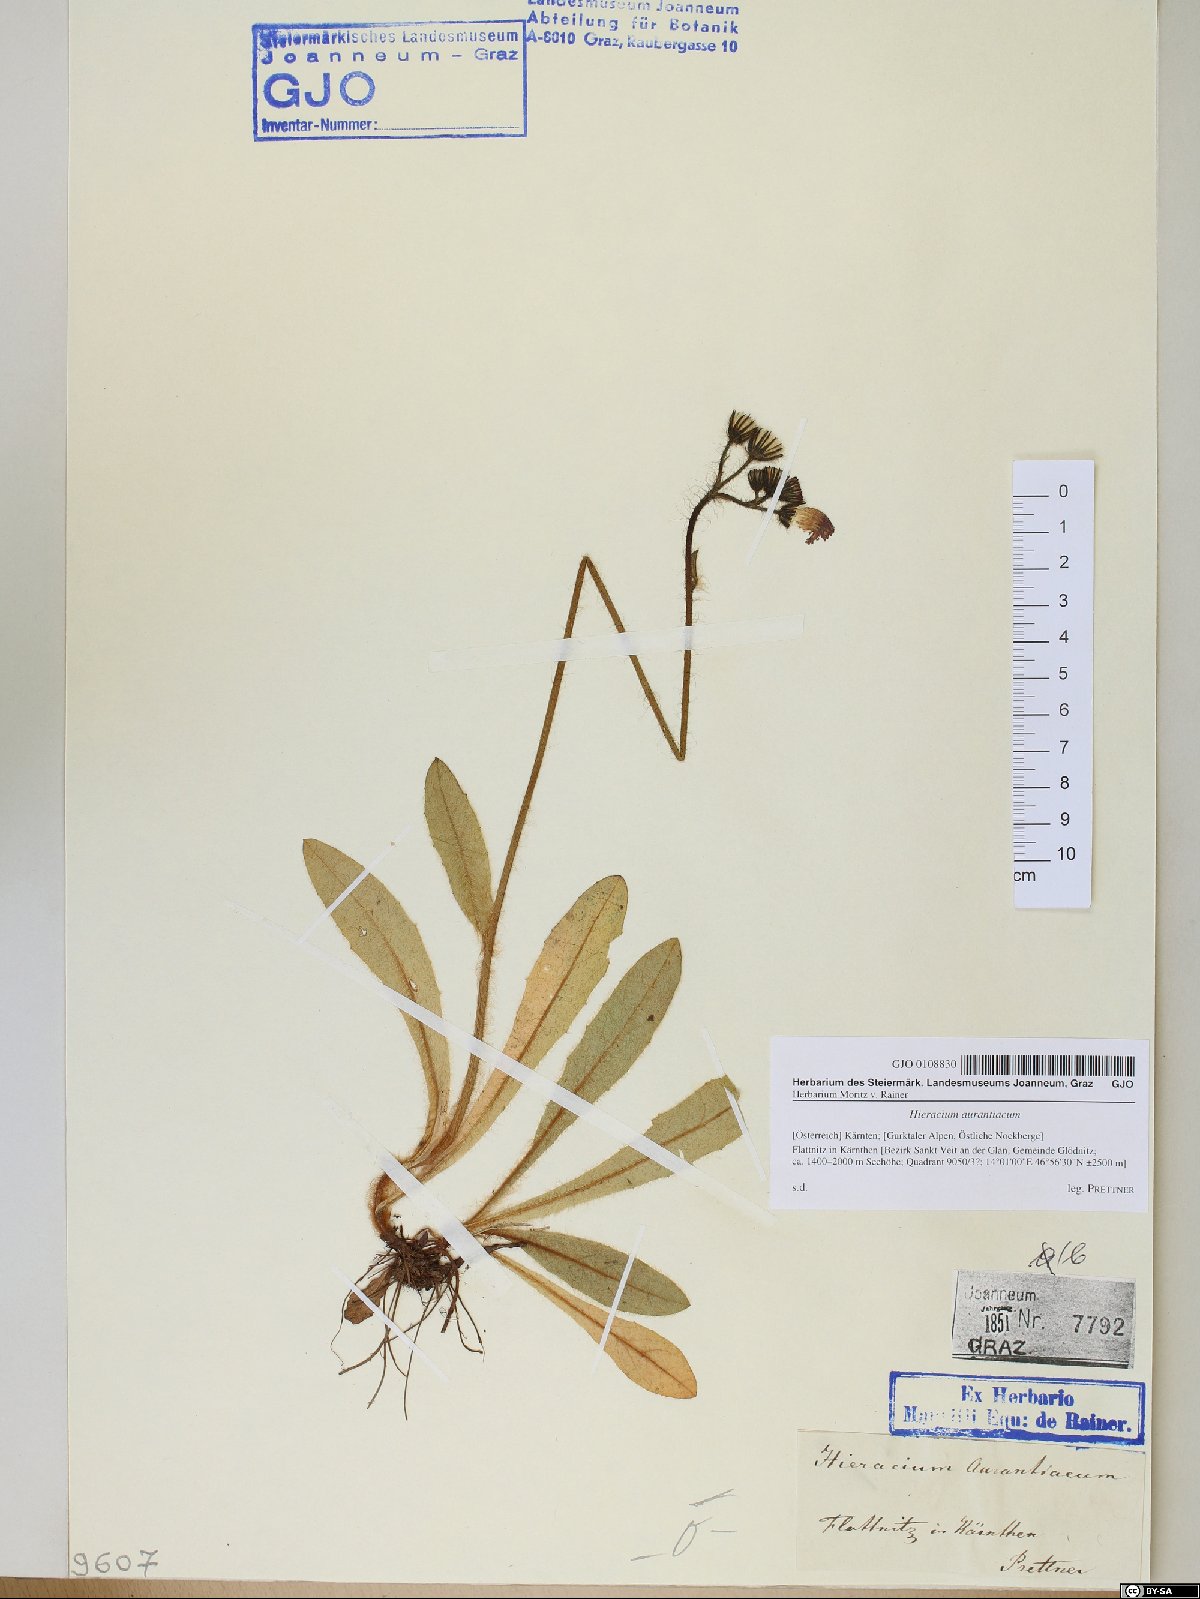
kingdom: Plantae
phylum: Tracheophyta
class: Magnoliopsida
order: Asterales
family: Asteraceae
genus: Pilosella
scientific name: Pilosella aurantiaca
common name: Fox-and-cubs
